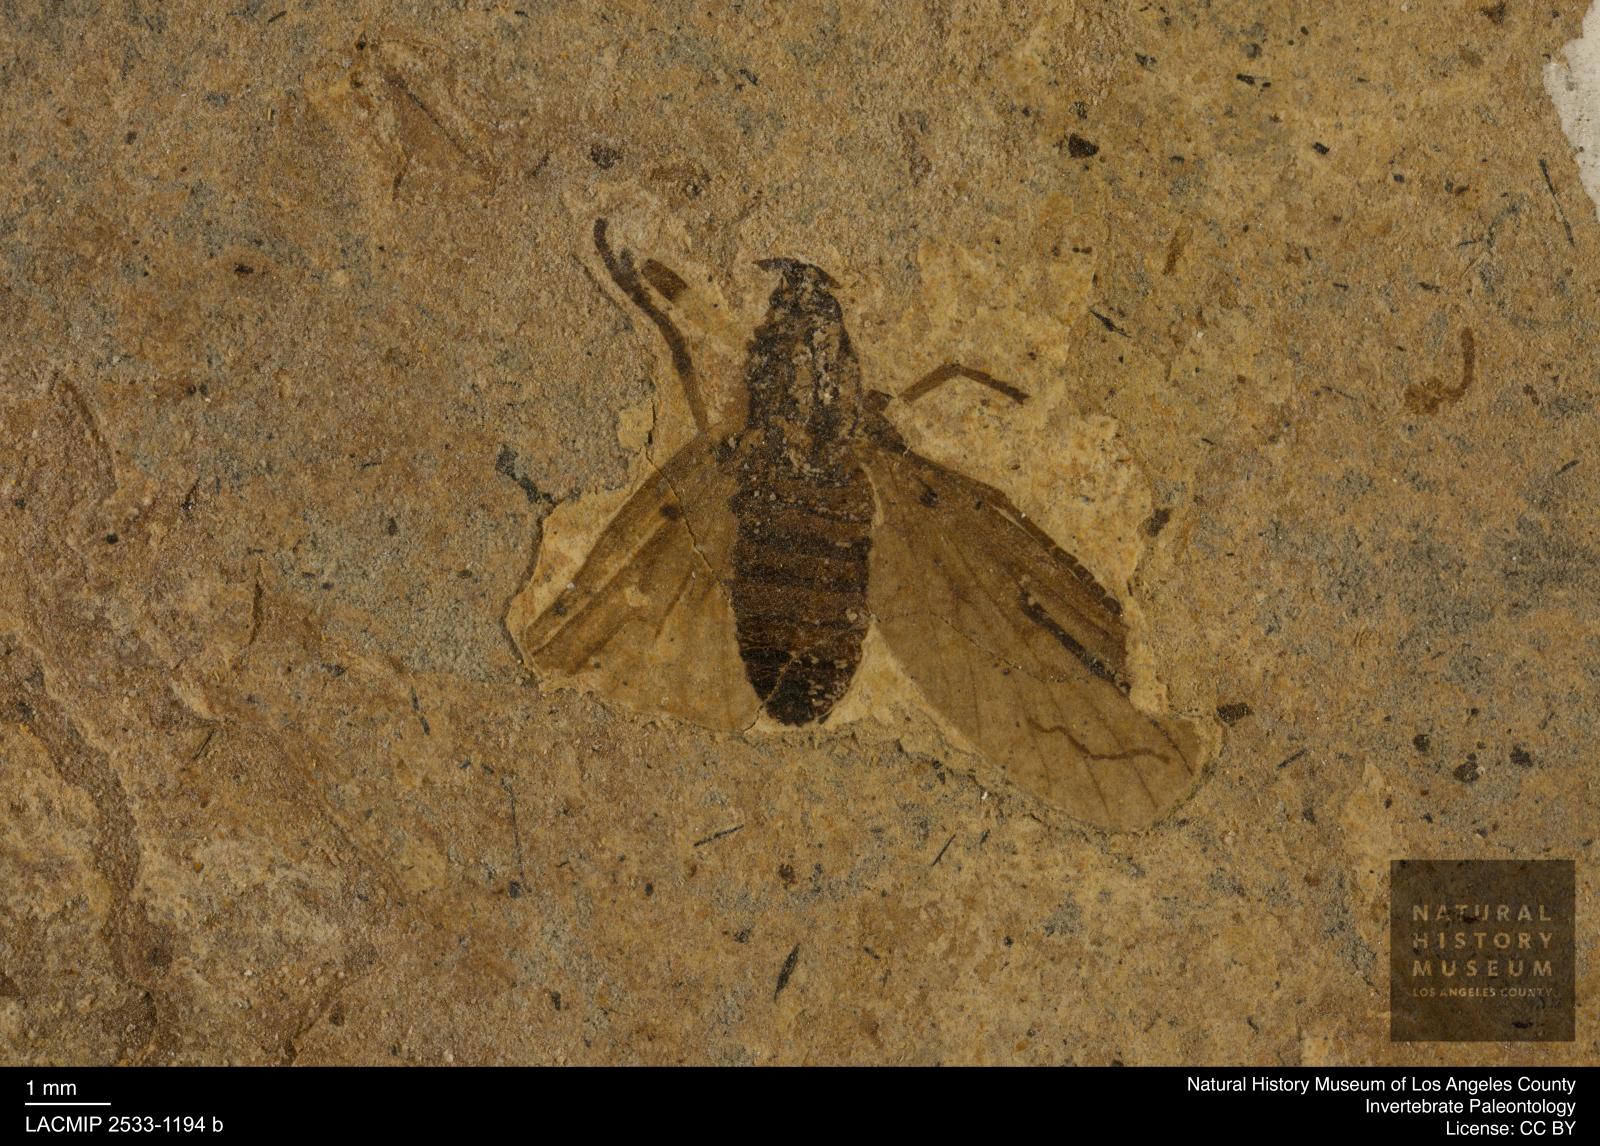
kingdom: Animalia
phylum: Arthropoda
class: Insecta
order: Diptera
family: Bibionidae
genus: Plecia
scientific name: Plecia stygia
